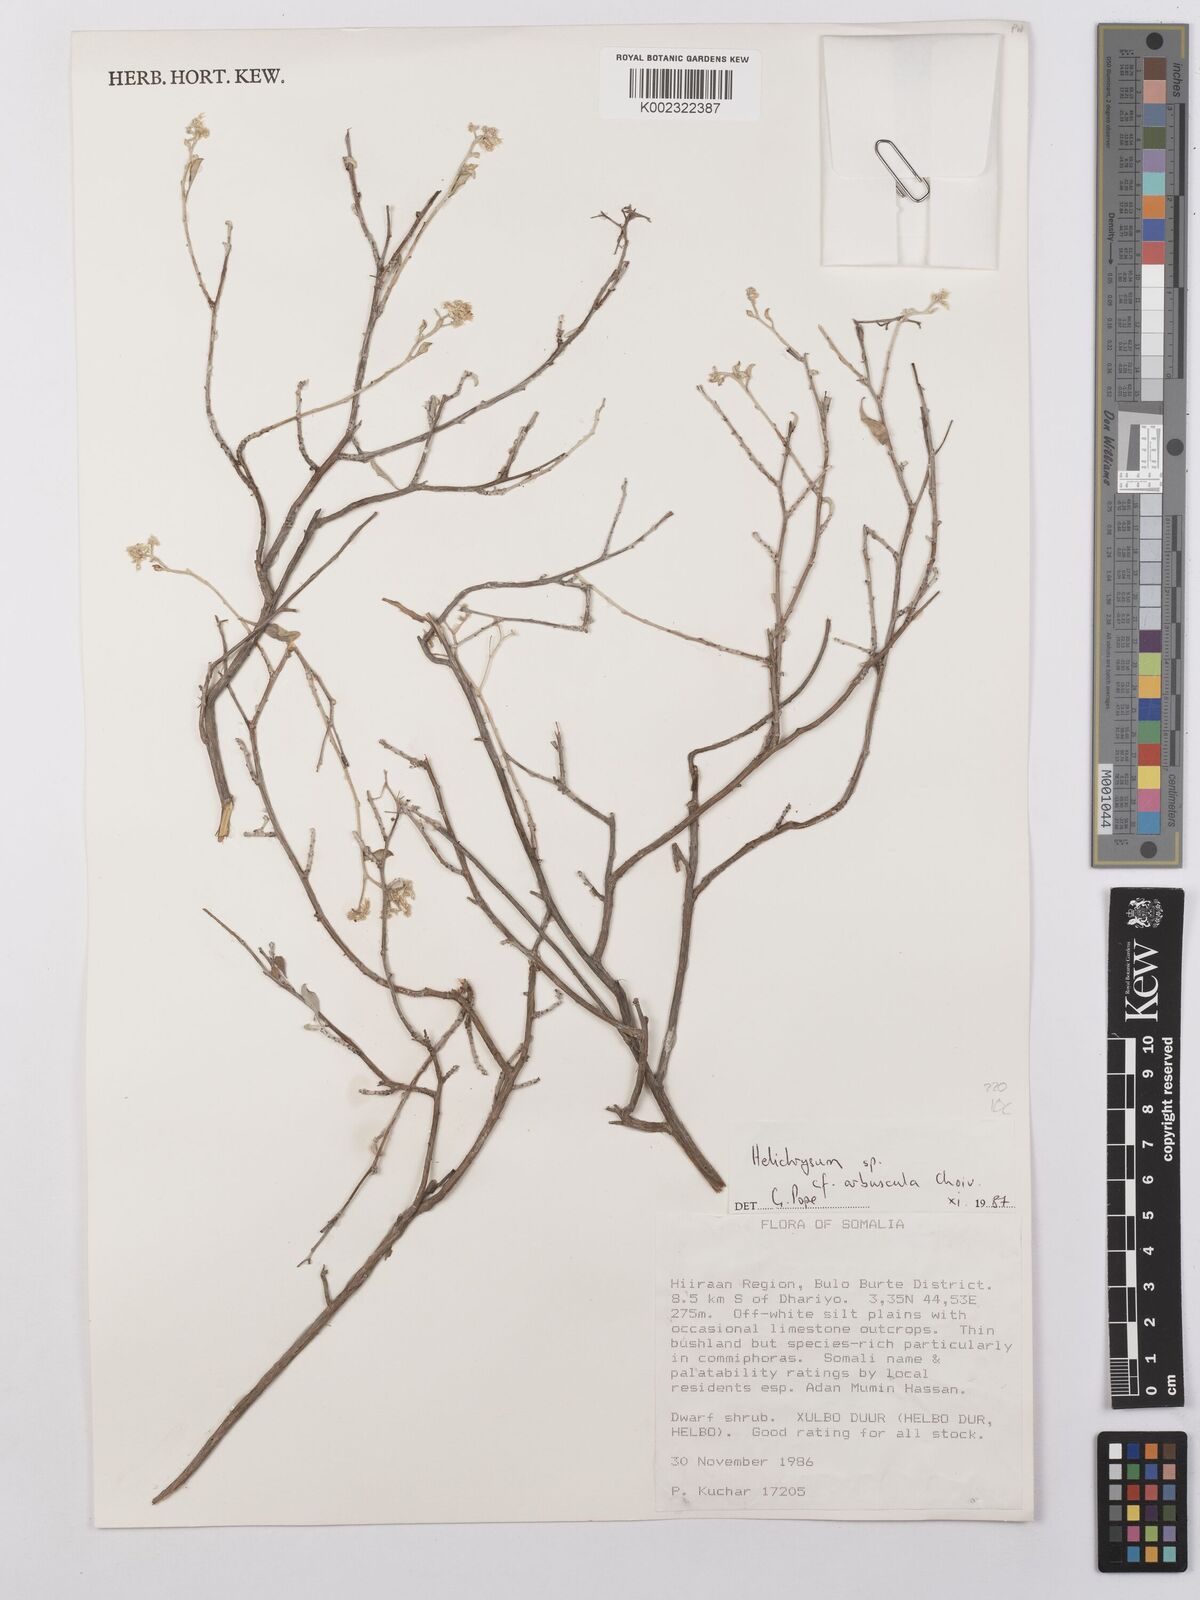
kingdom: Plantae
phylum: Tracheophyta
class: Magnoliopsida
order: Asterales
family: Asteraceae
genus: Helichrysum
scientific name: Helichrysum arbuscula
